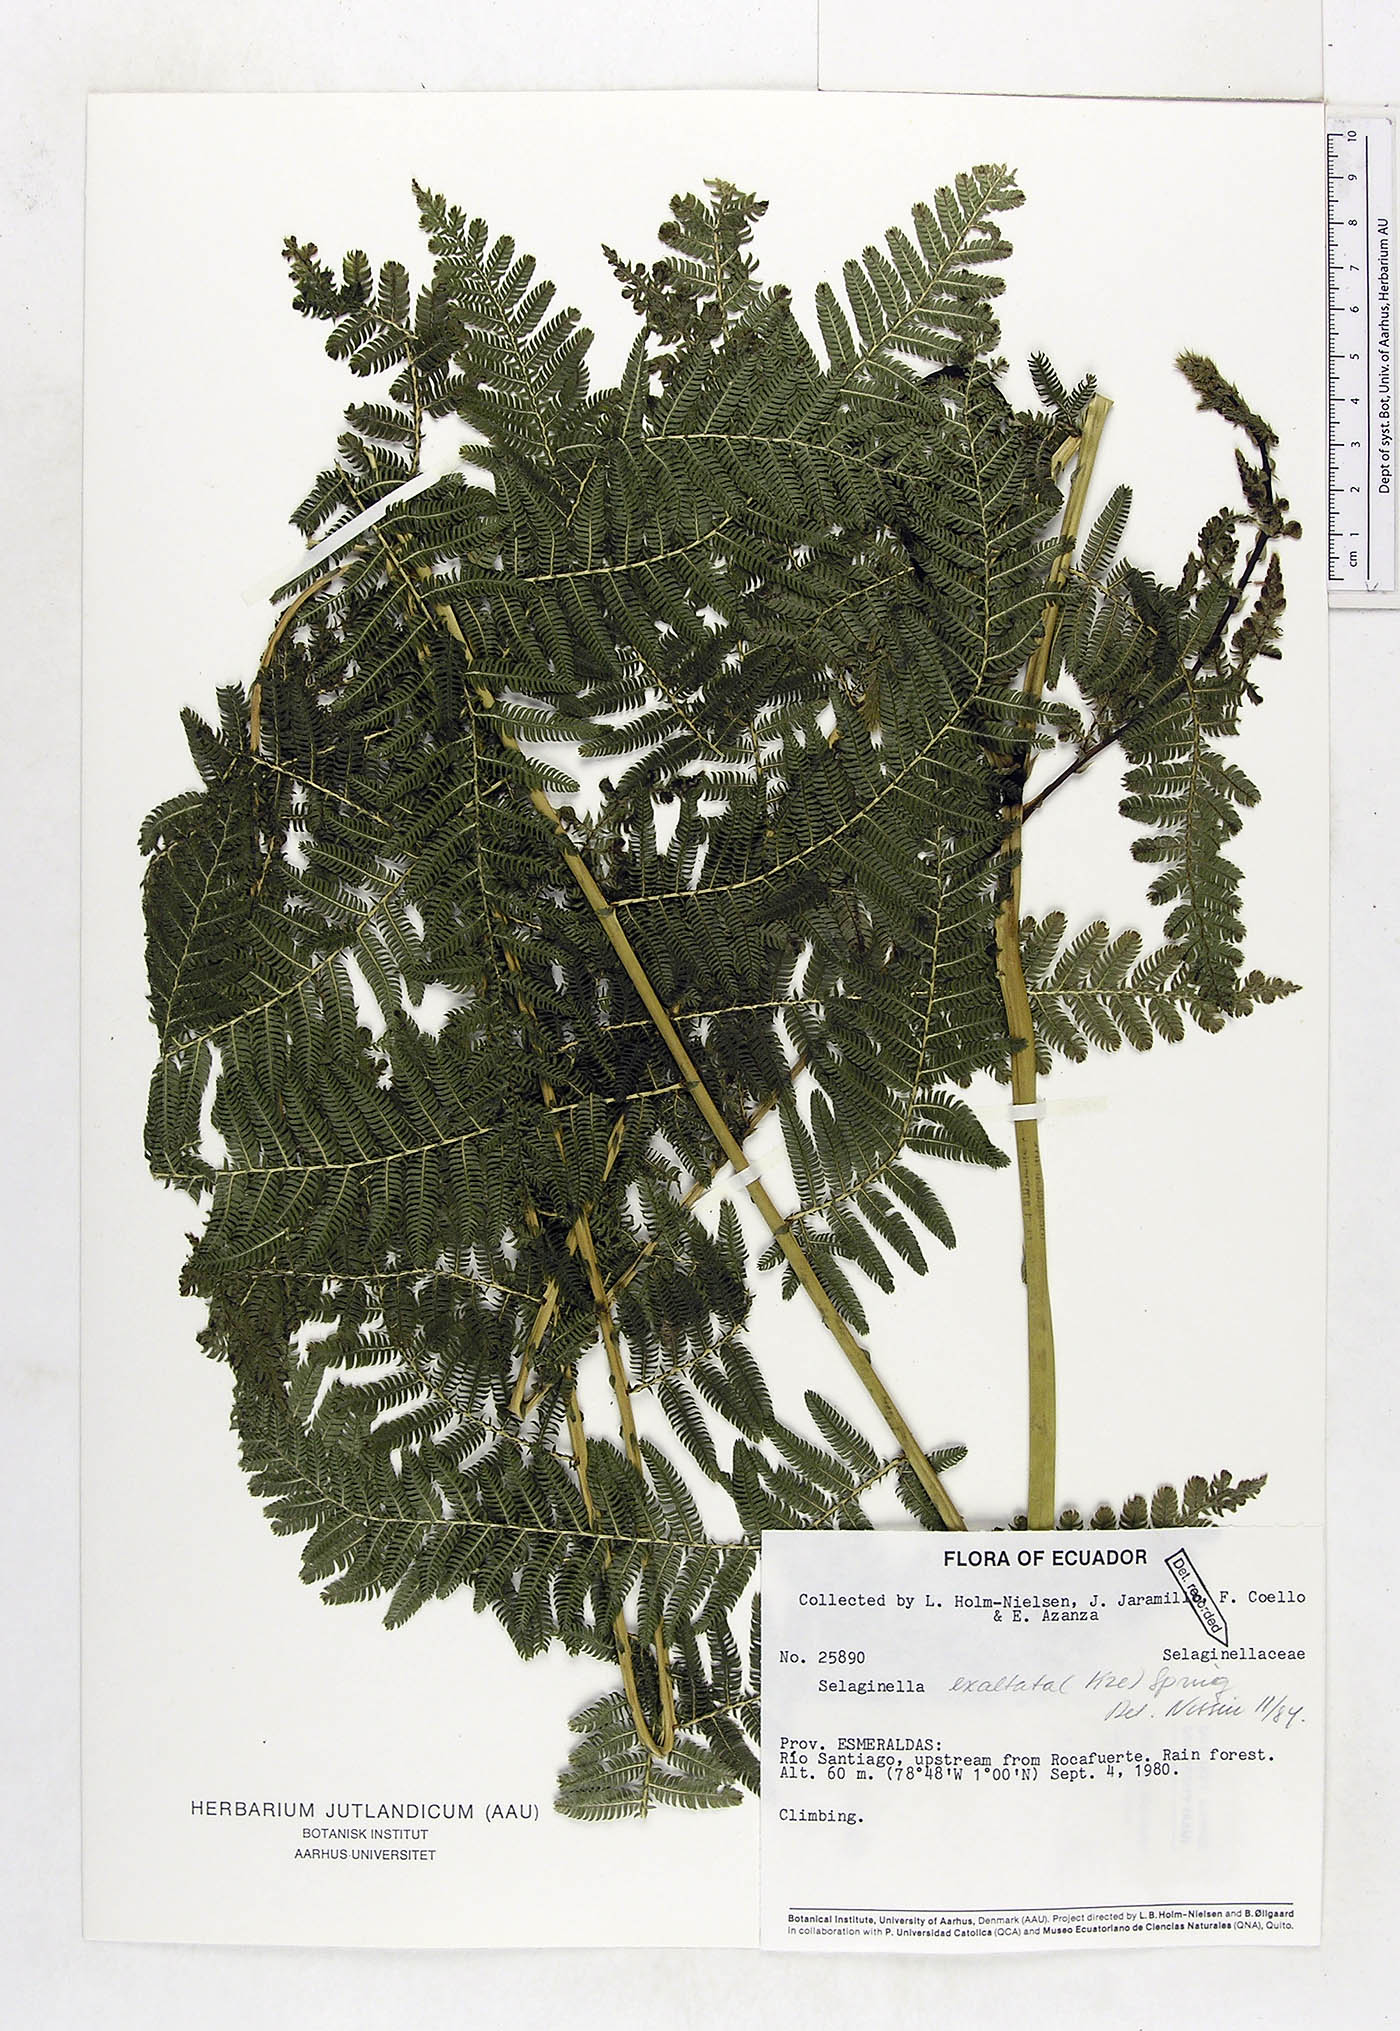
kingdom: Plantae
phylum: Tracheophyta
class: Lycopodiopsida
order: Selaginellales
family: Selaginellaceae
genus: Selaginella
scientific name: Selaginella exaltata
